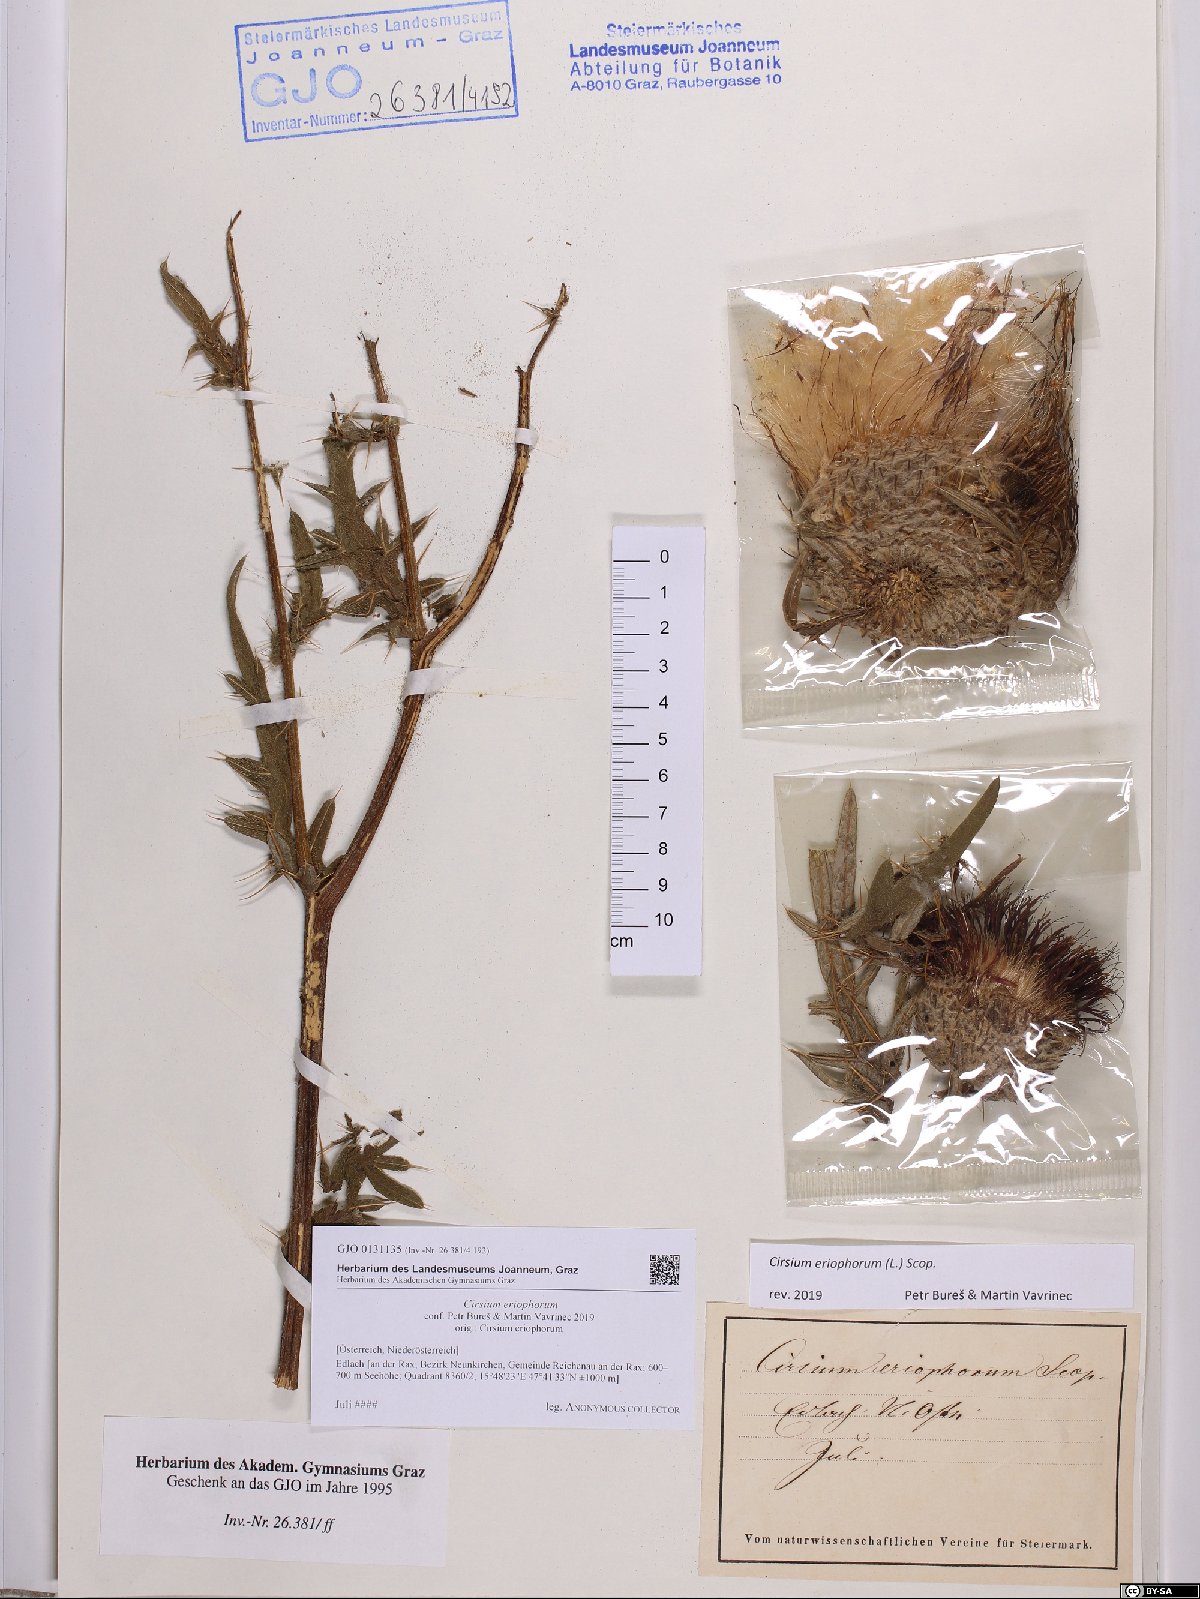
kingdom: Plantae
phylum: Tracheophyta
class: Magnoliopsida
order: Asterales
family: Asteraceae
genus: Lophiolepis
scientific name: Lophiolepis eriophora
